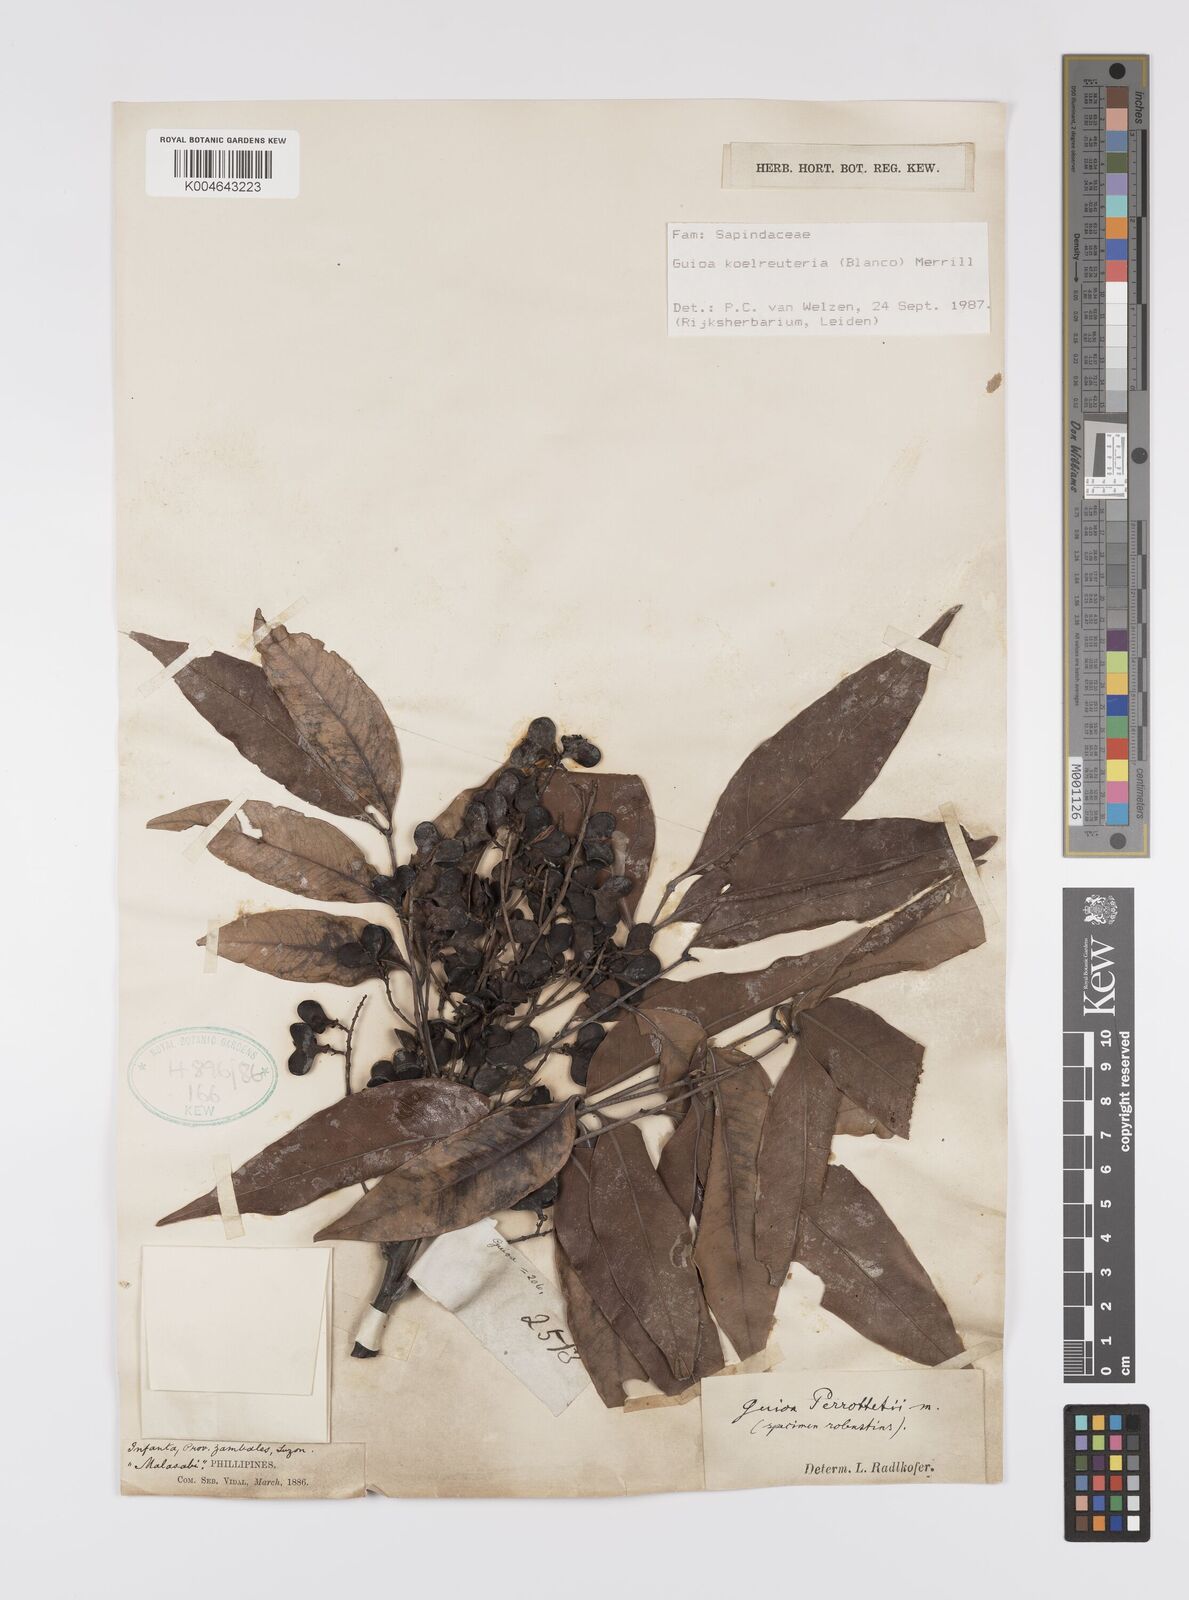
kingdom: Plantae
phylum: Tracheophyta
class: Magnoliopsida
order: Sapindales
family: Sapindaceae
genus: Guioa
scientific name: Guioa koelreuteria
